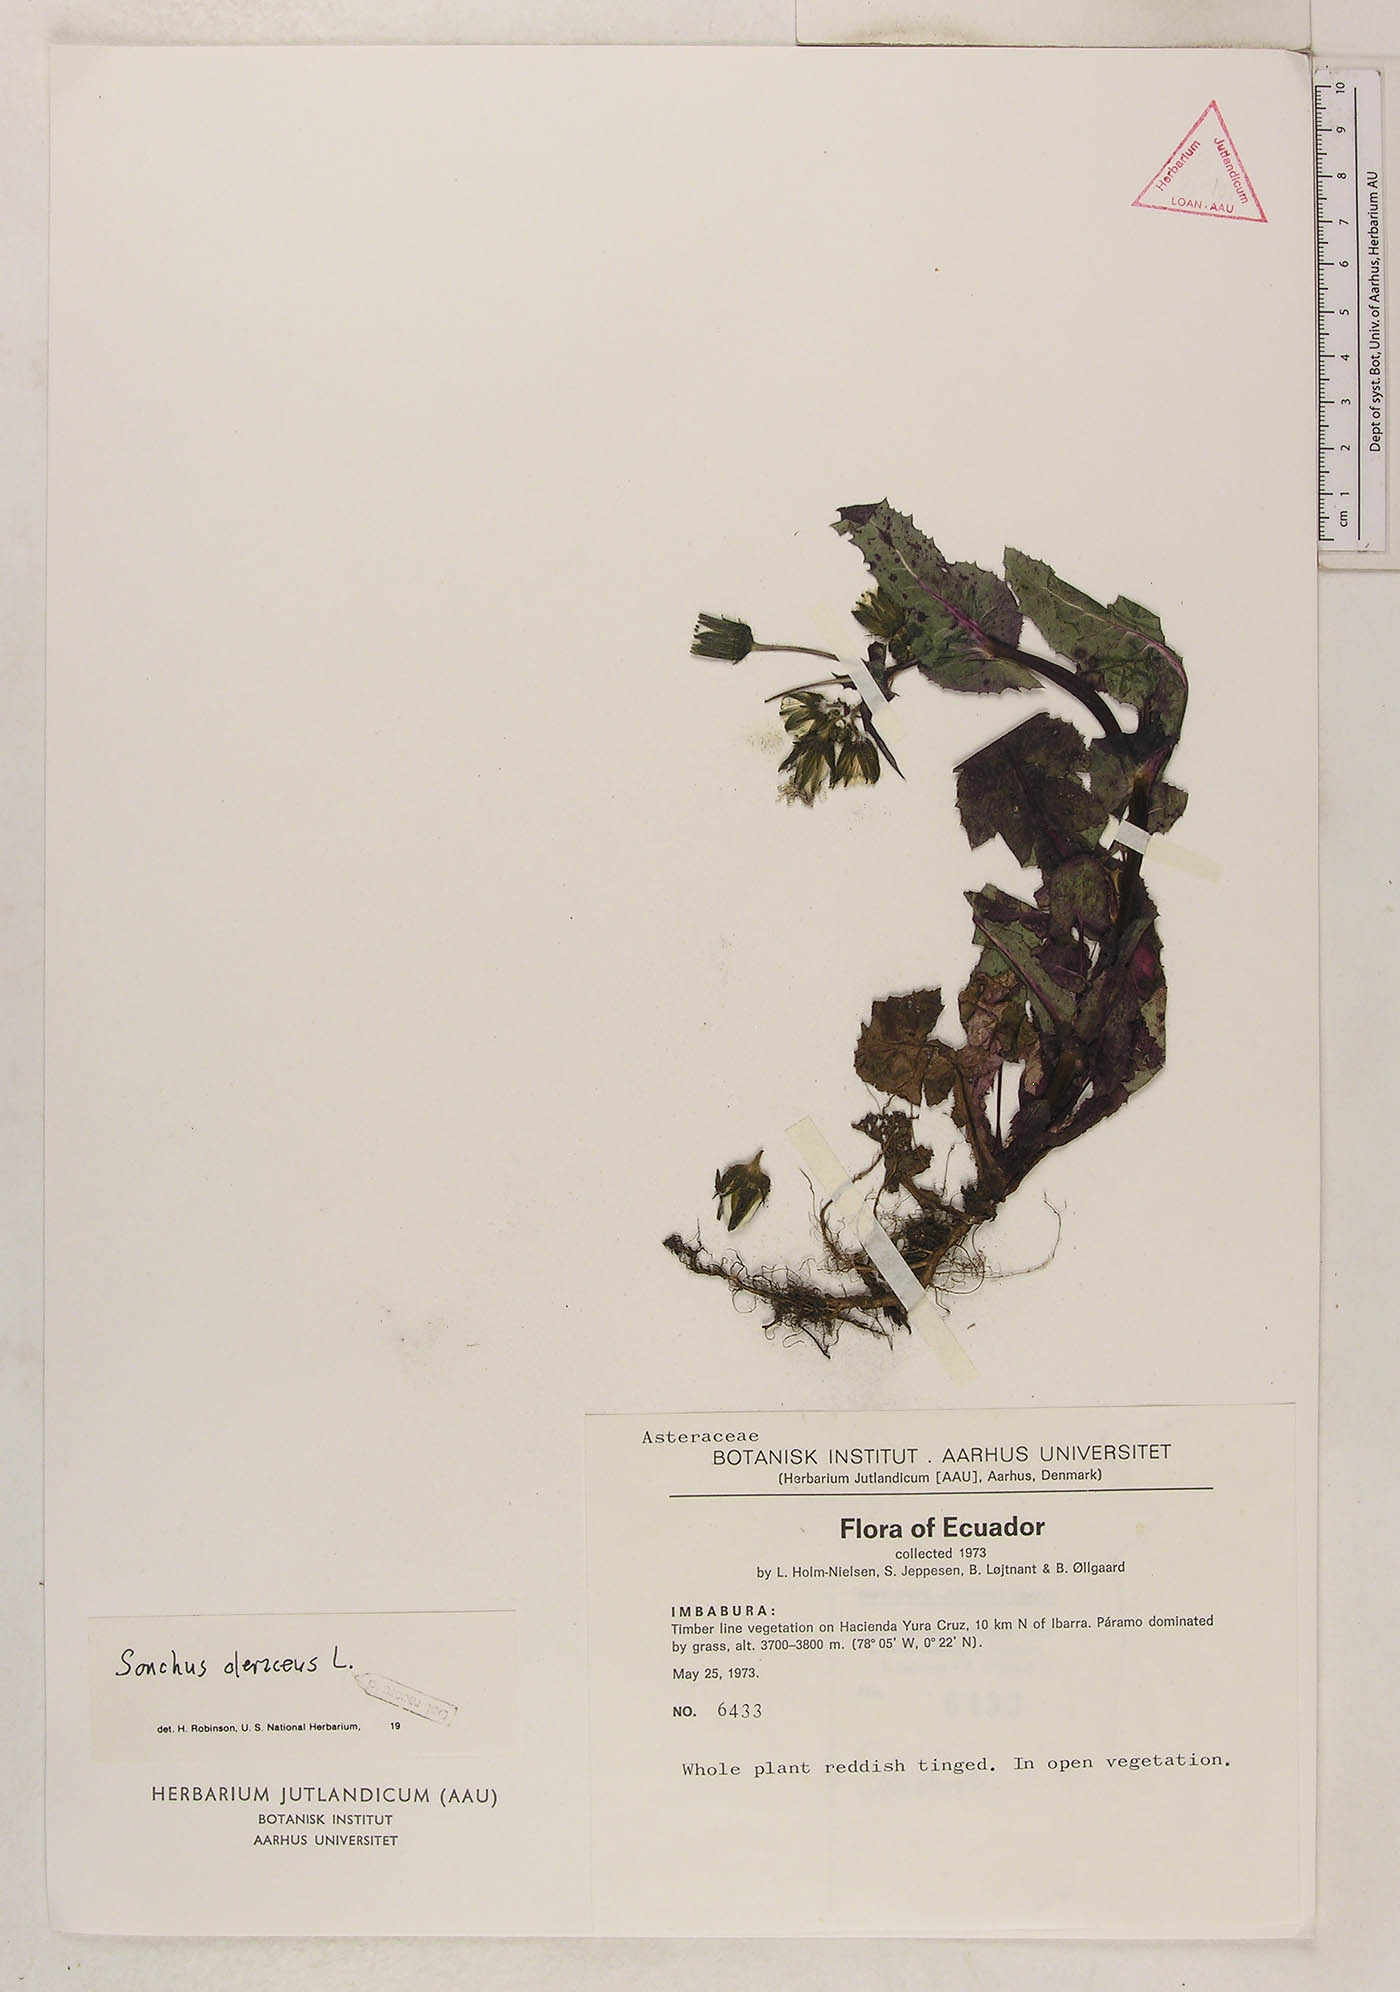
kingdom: Plantae
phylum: Tracheophyta
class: Magnoliopsida
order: Asterales
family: Asteraceae
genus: Sonchus
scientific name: Sonchus oleraceus
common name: Common sowthistle
